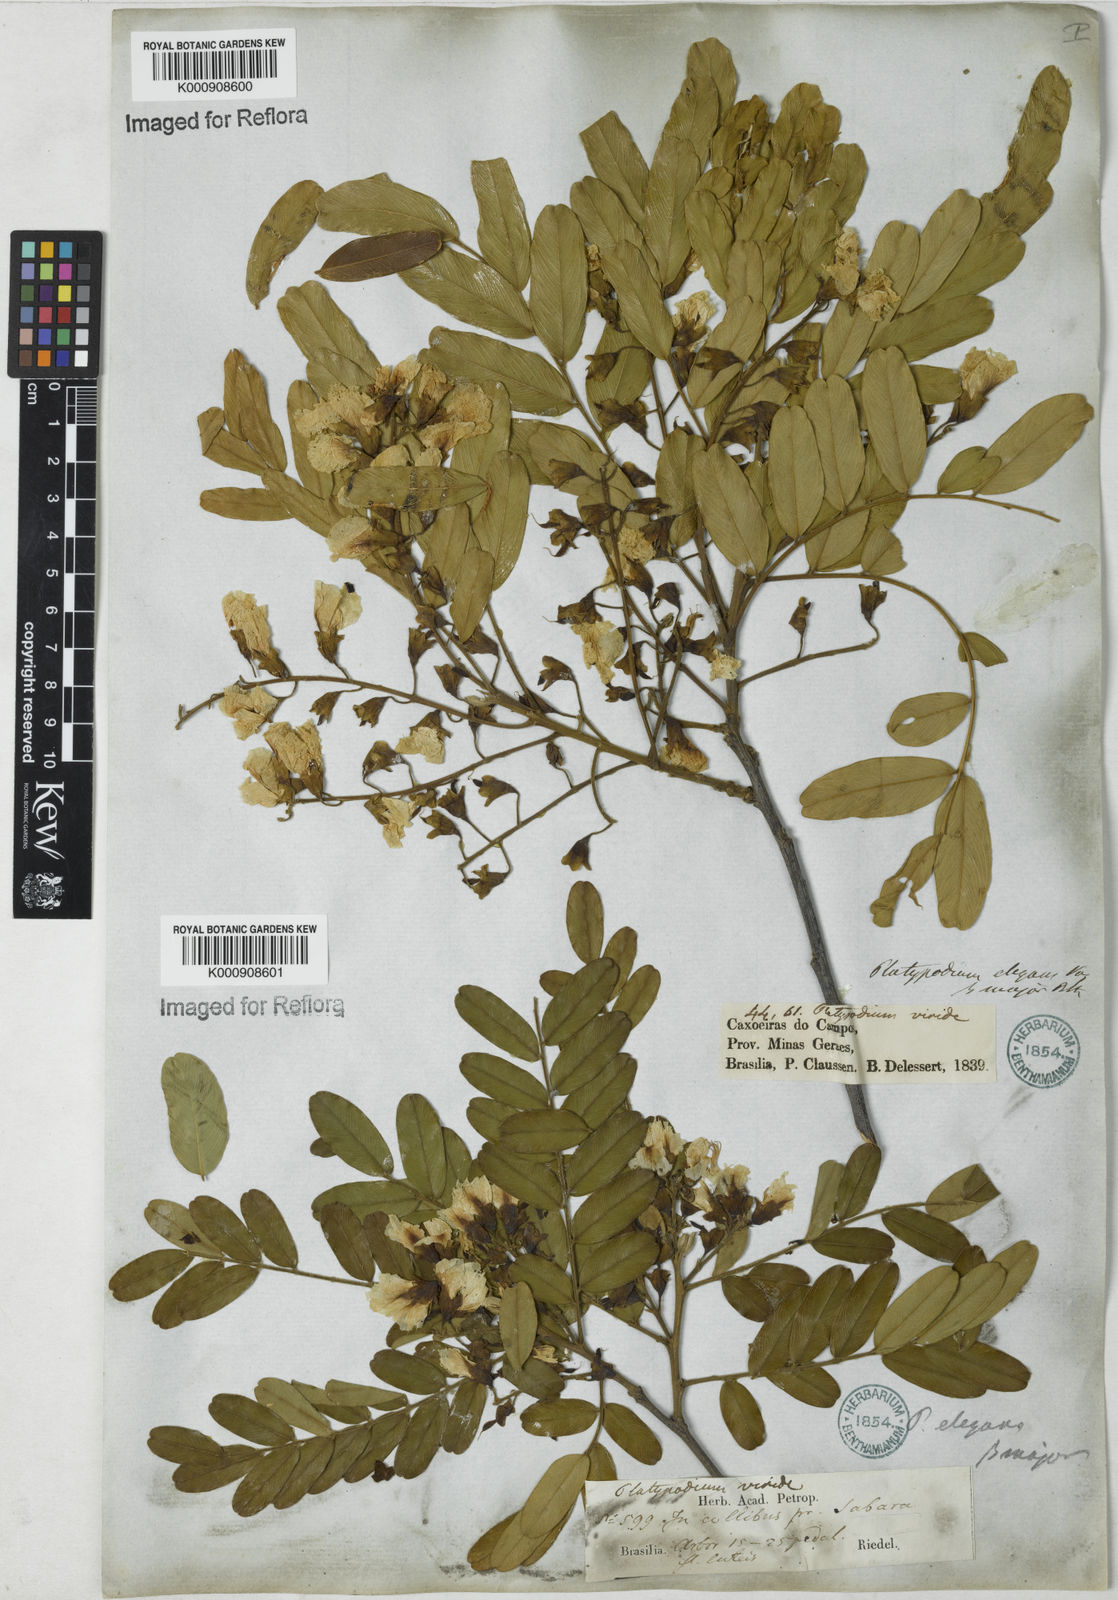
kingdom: Plantae
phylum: Tracheophyta
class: Magnoliopsida
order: Fabales
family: Fabaceae
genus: Platypodium
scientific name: Platypodium elegans
